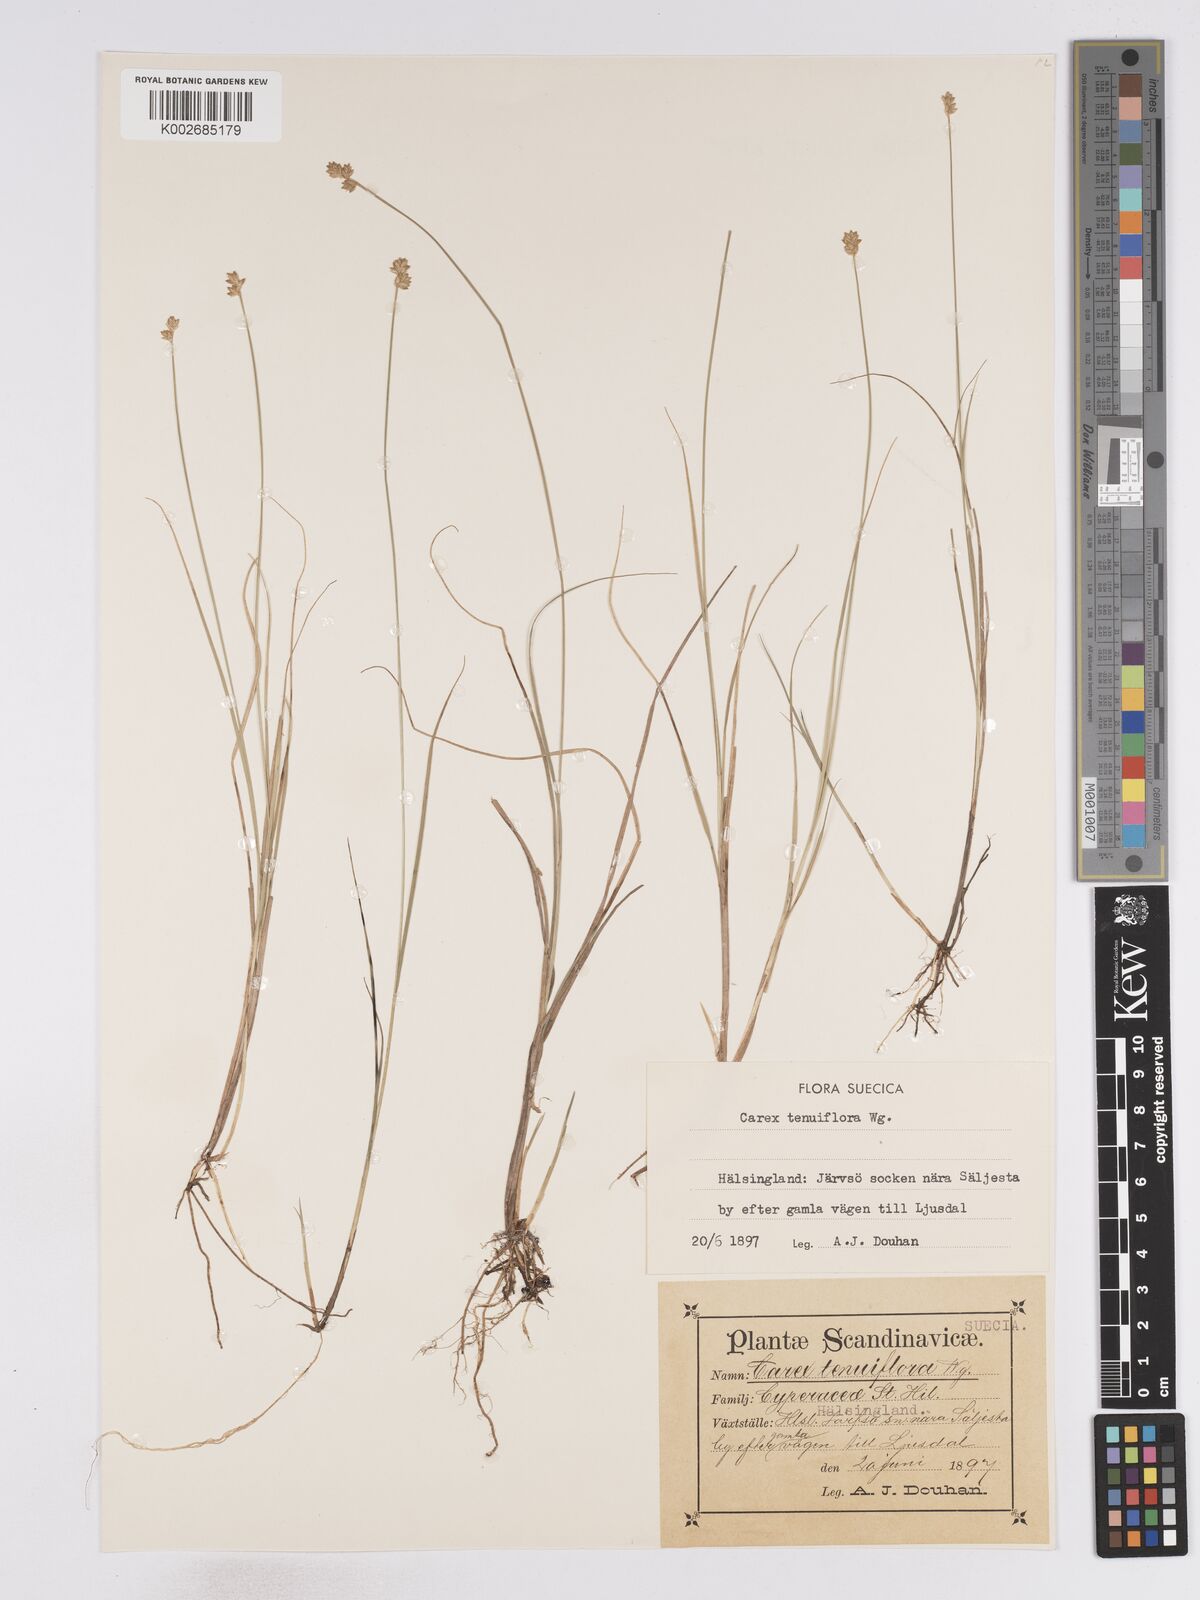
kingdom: Plantae
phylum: Tracheophyta
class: Liliopsida
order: Poales
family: Cyperaceae
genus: Carex
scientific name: Carex tenuiflora
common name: Sparse-flowered sedge
